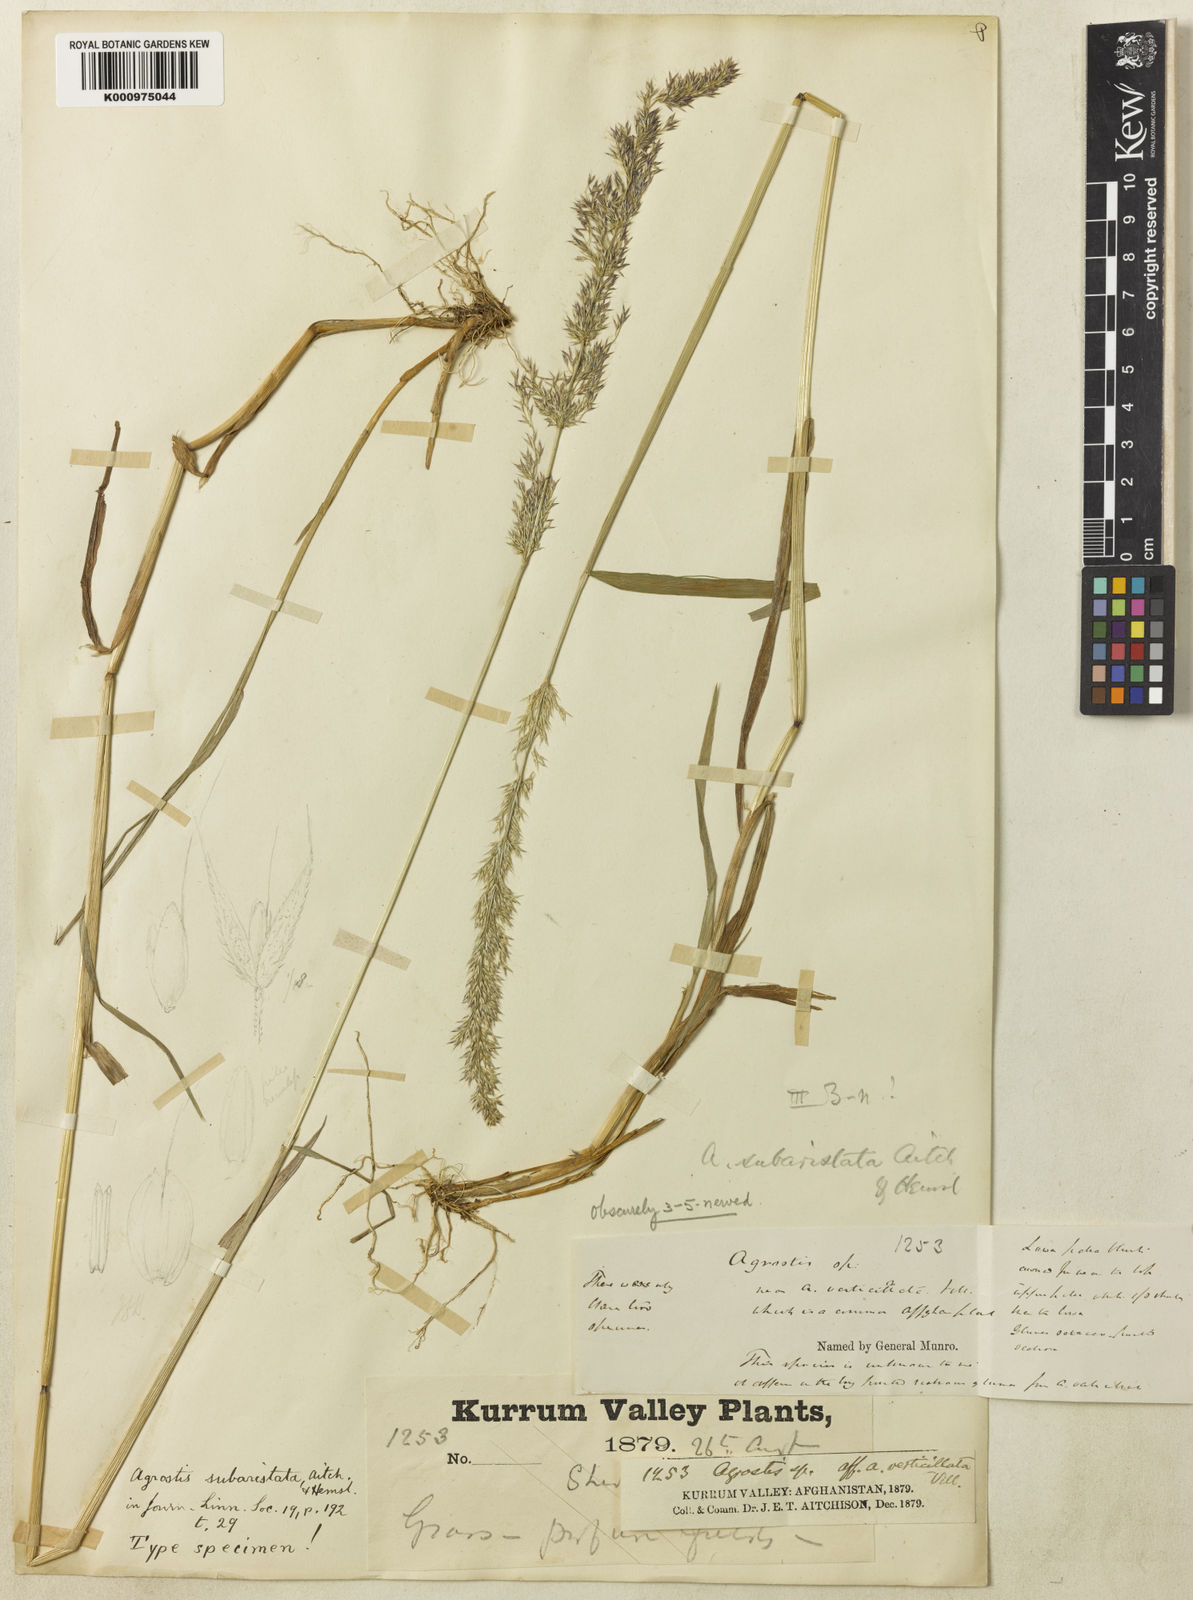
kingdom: Plantae
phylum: Tracheophyta
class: Liliopsida
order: Poales
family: Poaceae
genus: Agropogon
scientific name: Agropogon lutosus
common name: Coast agropogon
